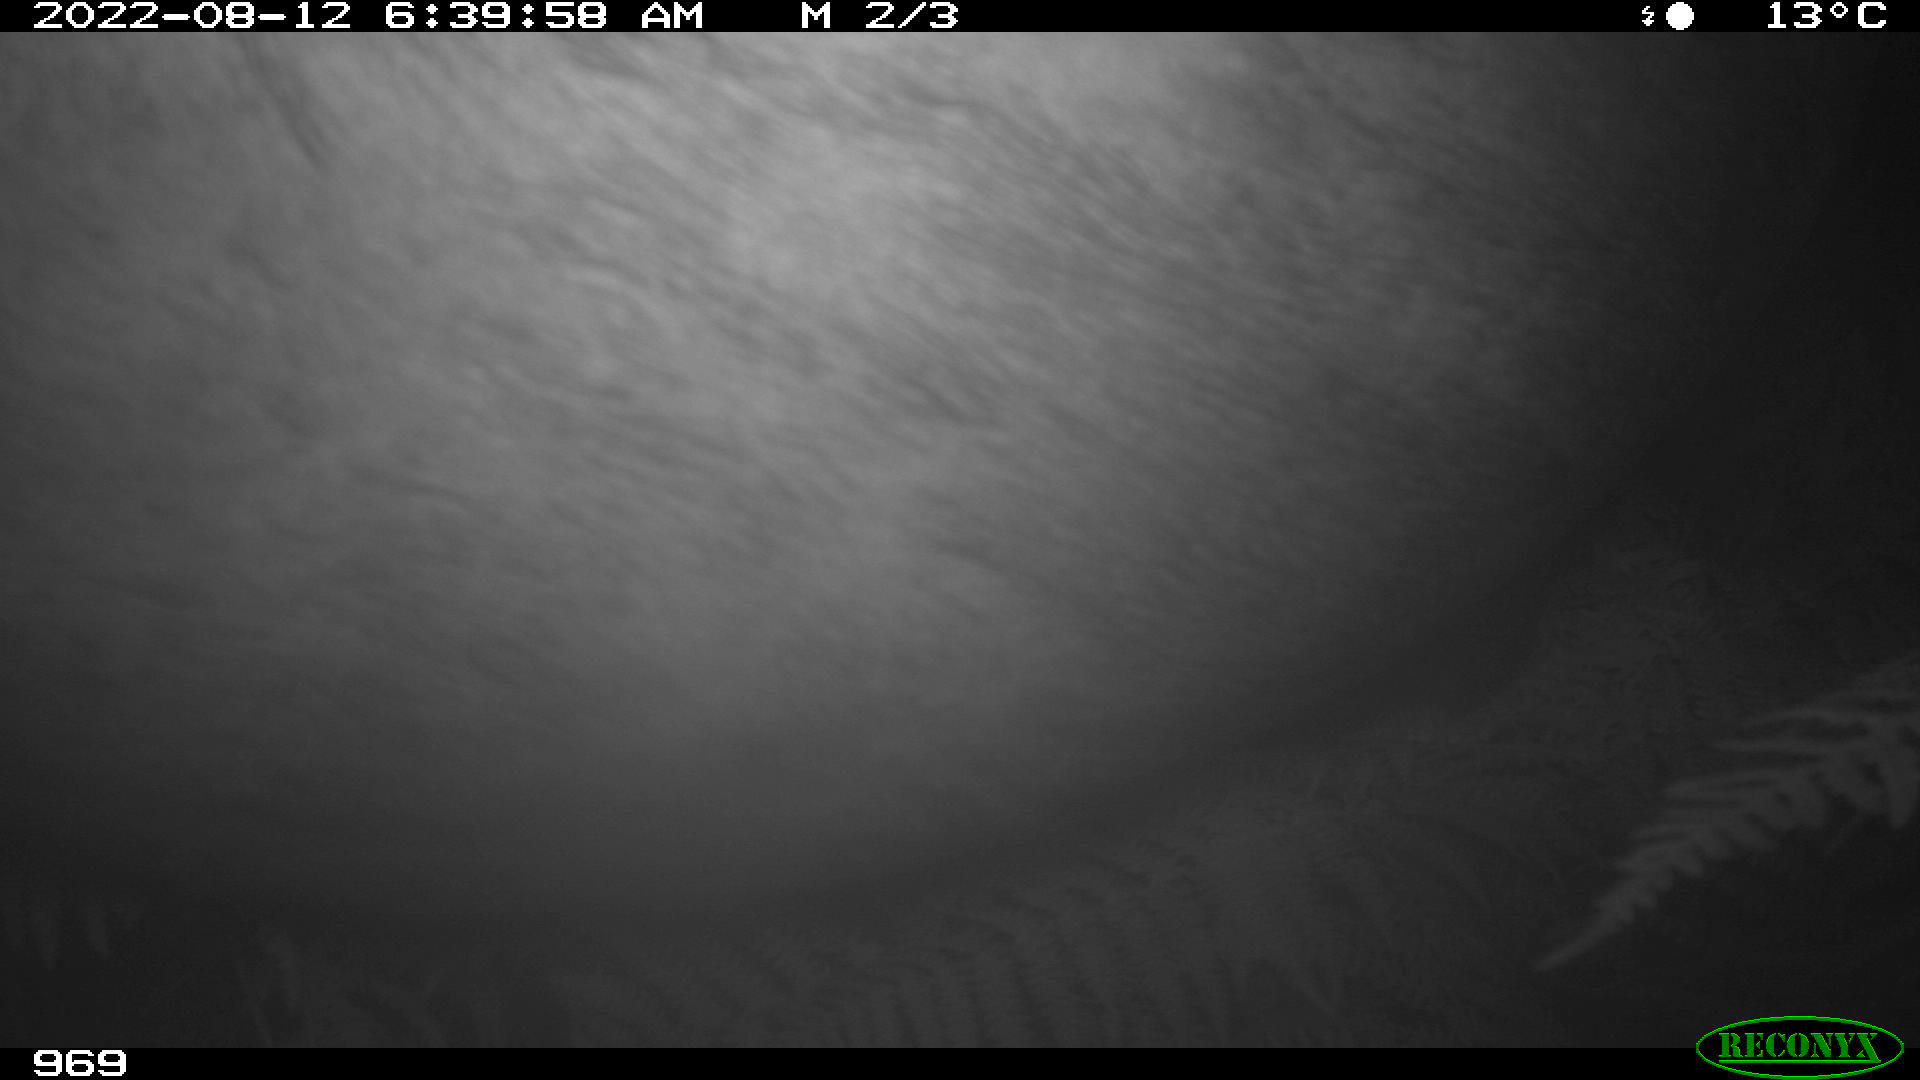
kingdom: Animalia
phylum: Chordata
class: Mammalia
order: Perissodactyla
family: Equidae
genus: Equus
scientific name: Equus caballus
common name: Horse
